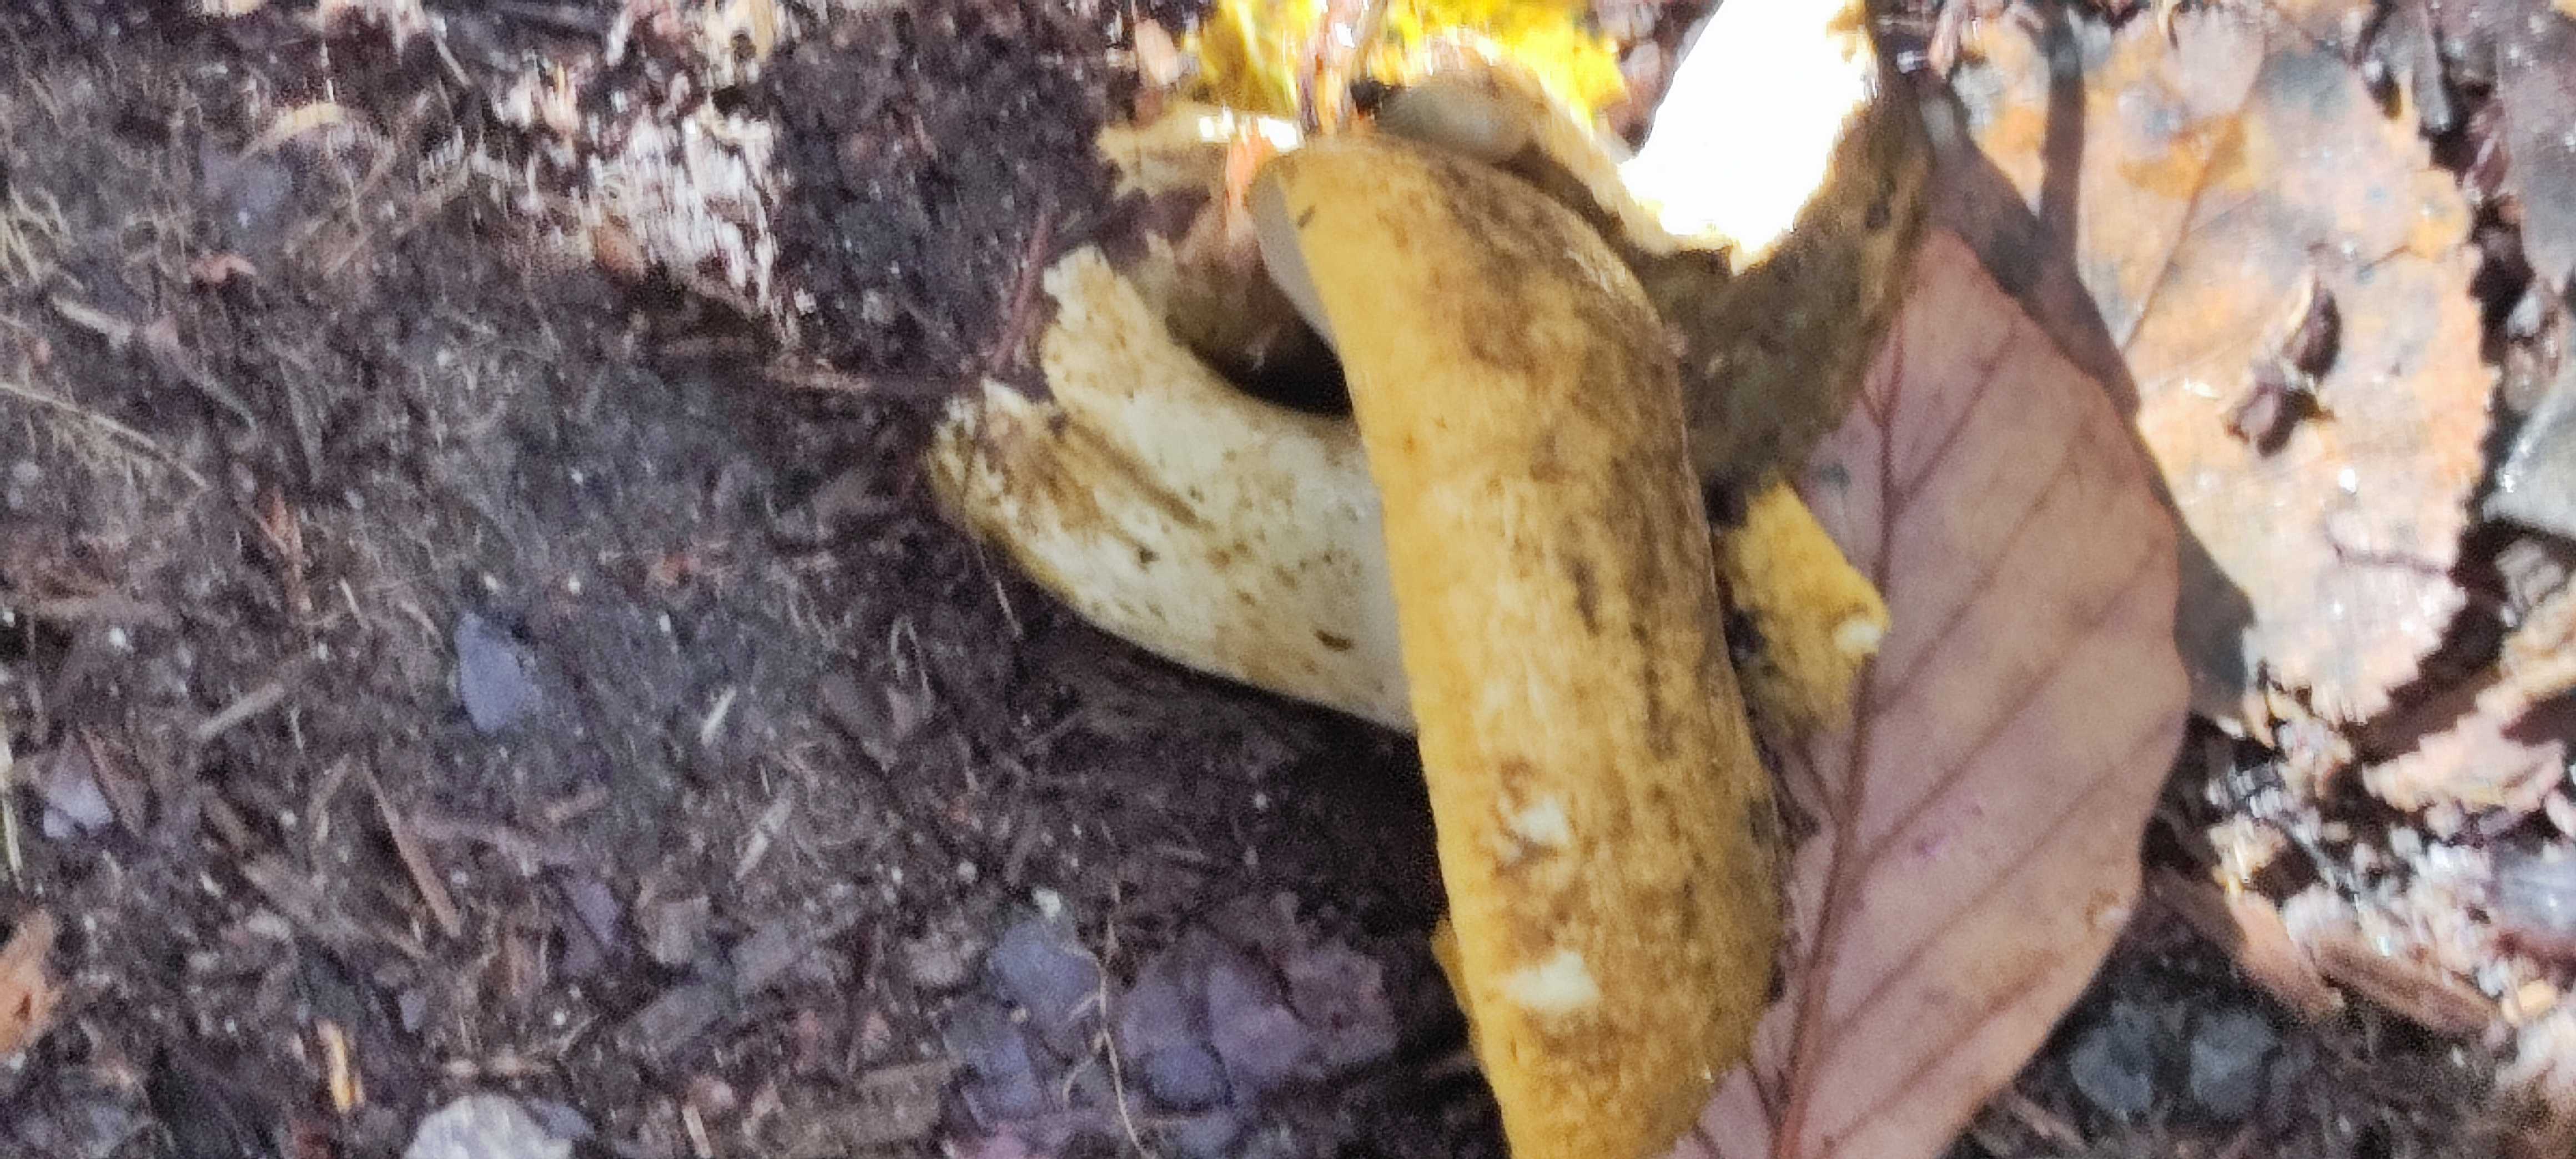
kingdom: Fungi
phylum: Basidiomycota
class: Agaricomycetes
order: Russulales
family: Russulaceae
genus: Lactarius
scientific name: Lactarius necator
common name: manddraber-mælkehat
